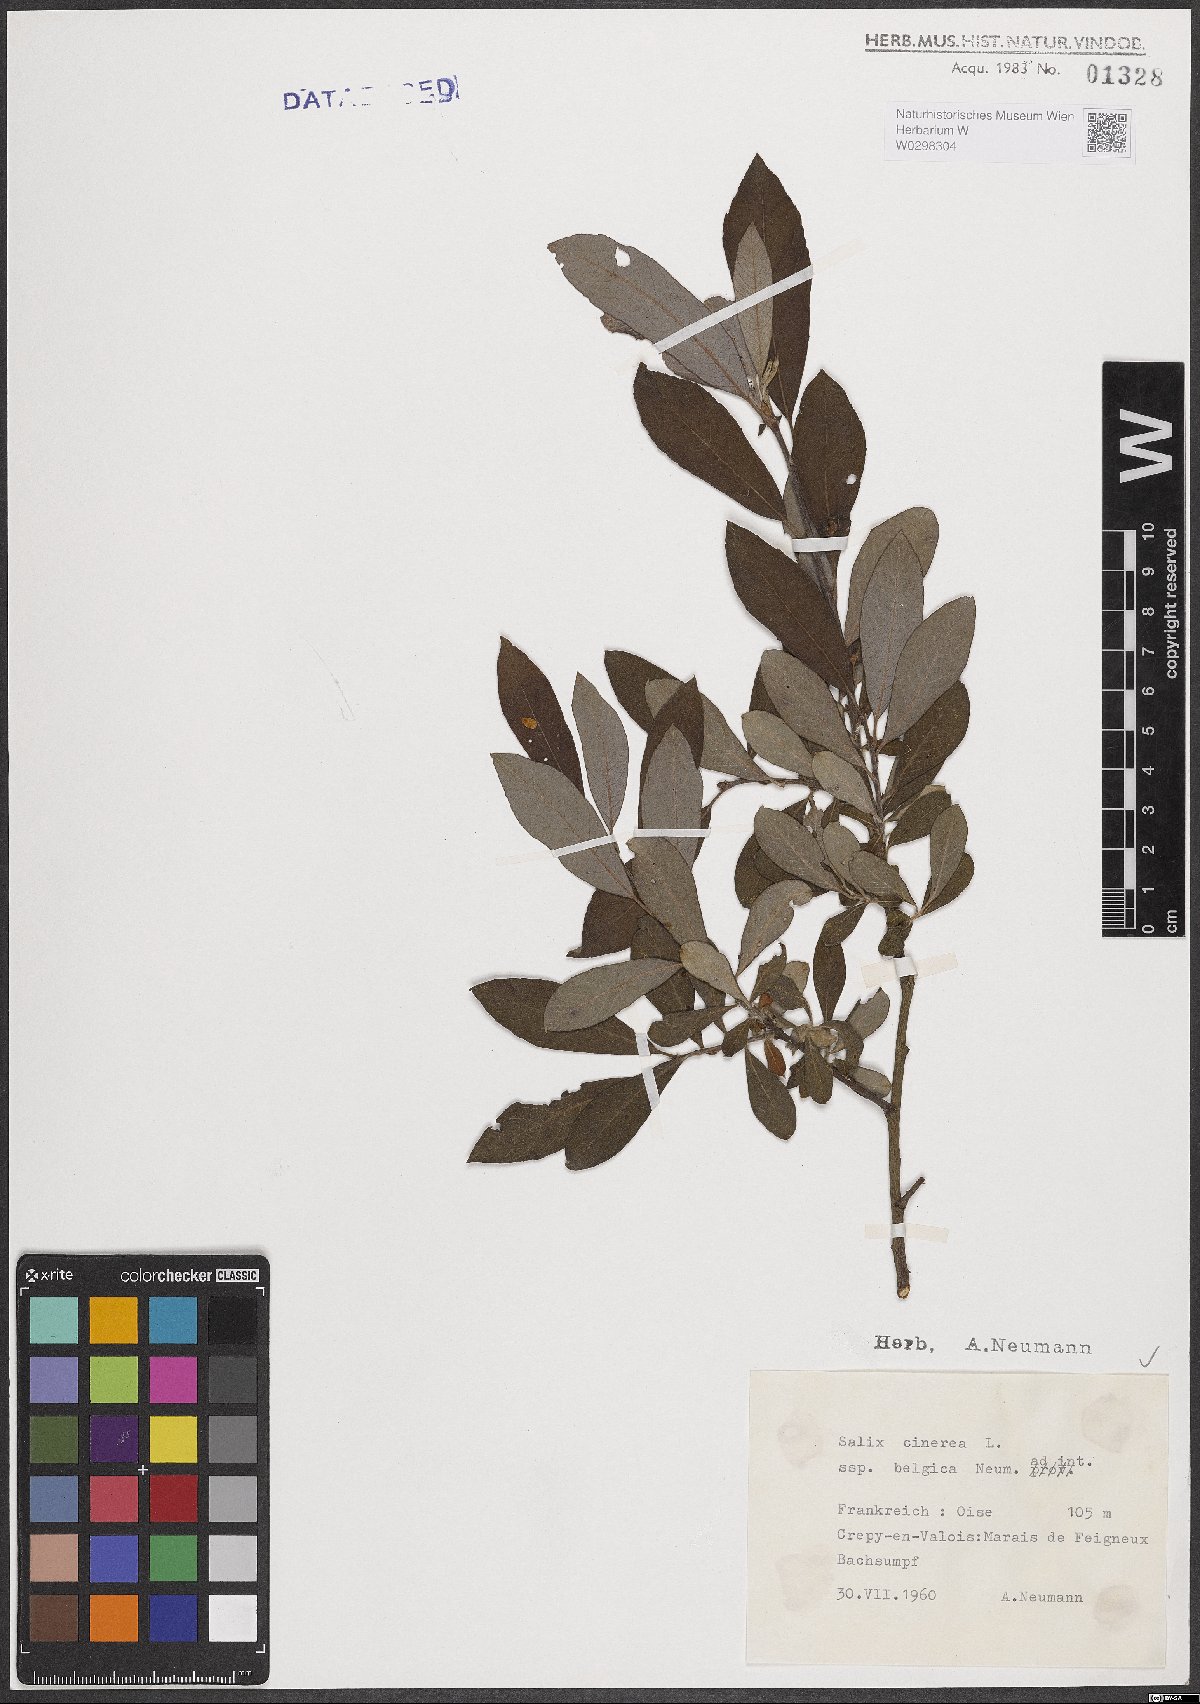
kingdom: Plantae
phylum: Tracheophyta
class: Magnoliopsida
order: Malpighiales
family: Salicaceae
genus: Salix
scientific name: Salix cinerea
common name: Common sallow
